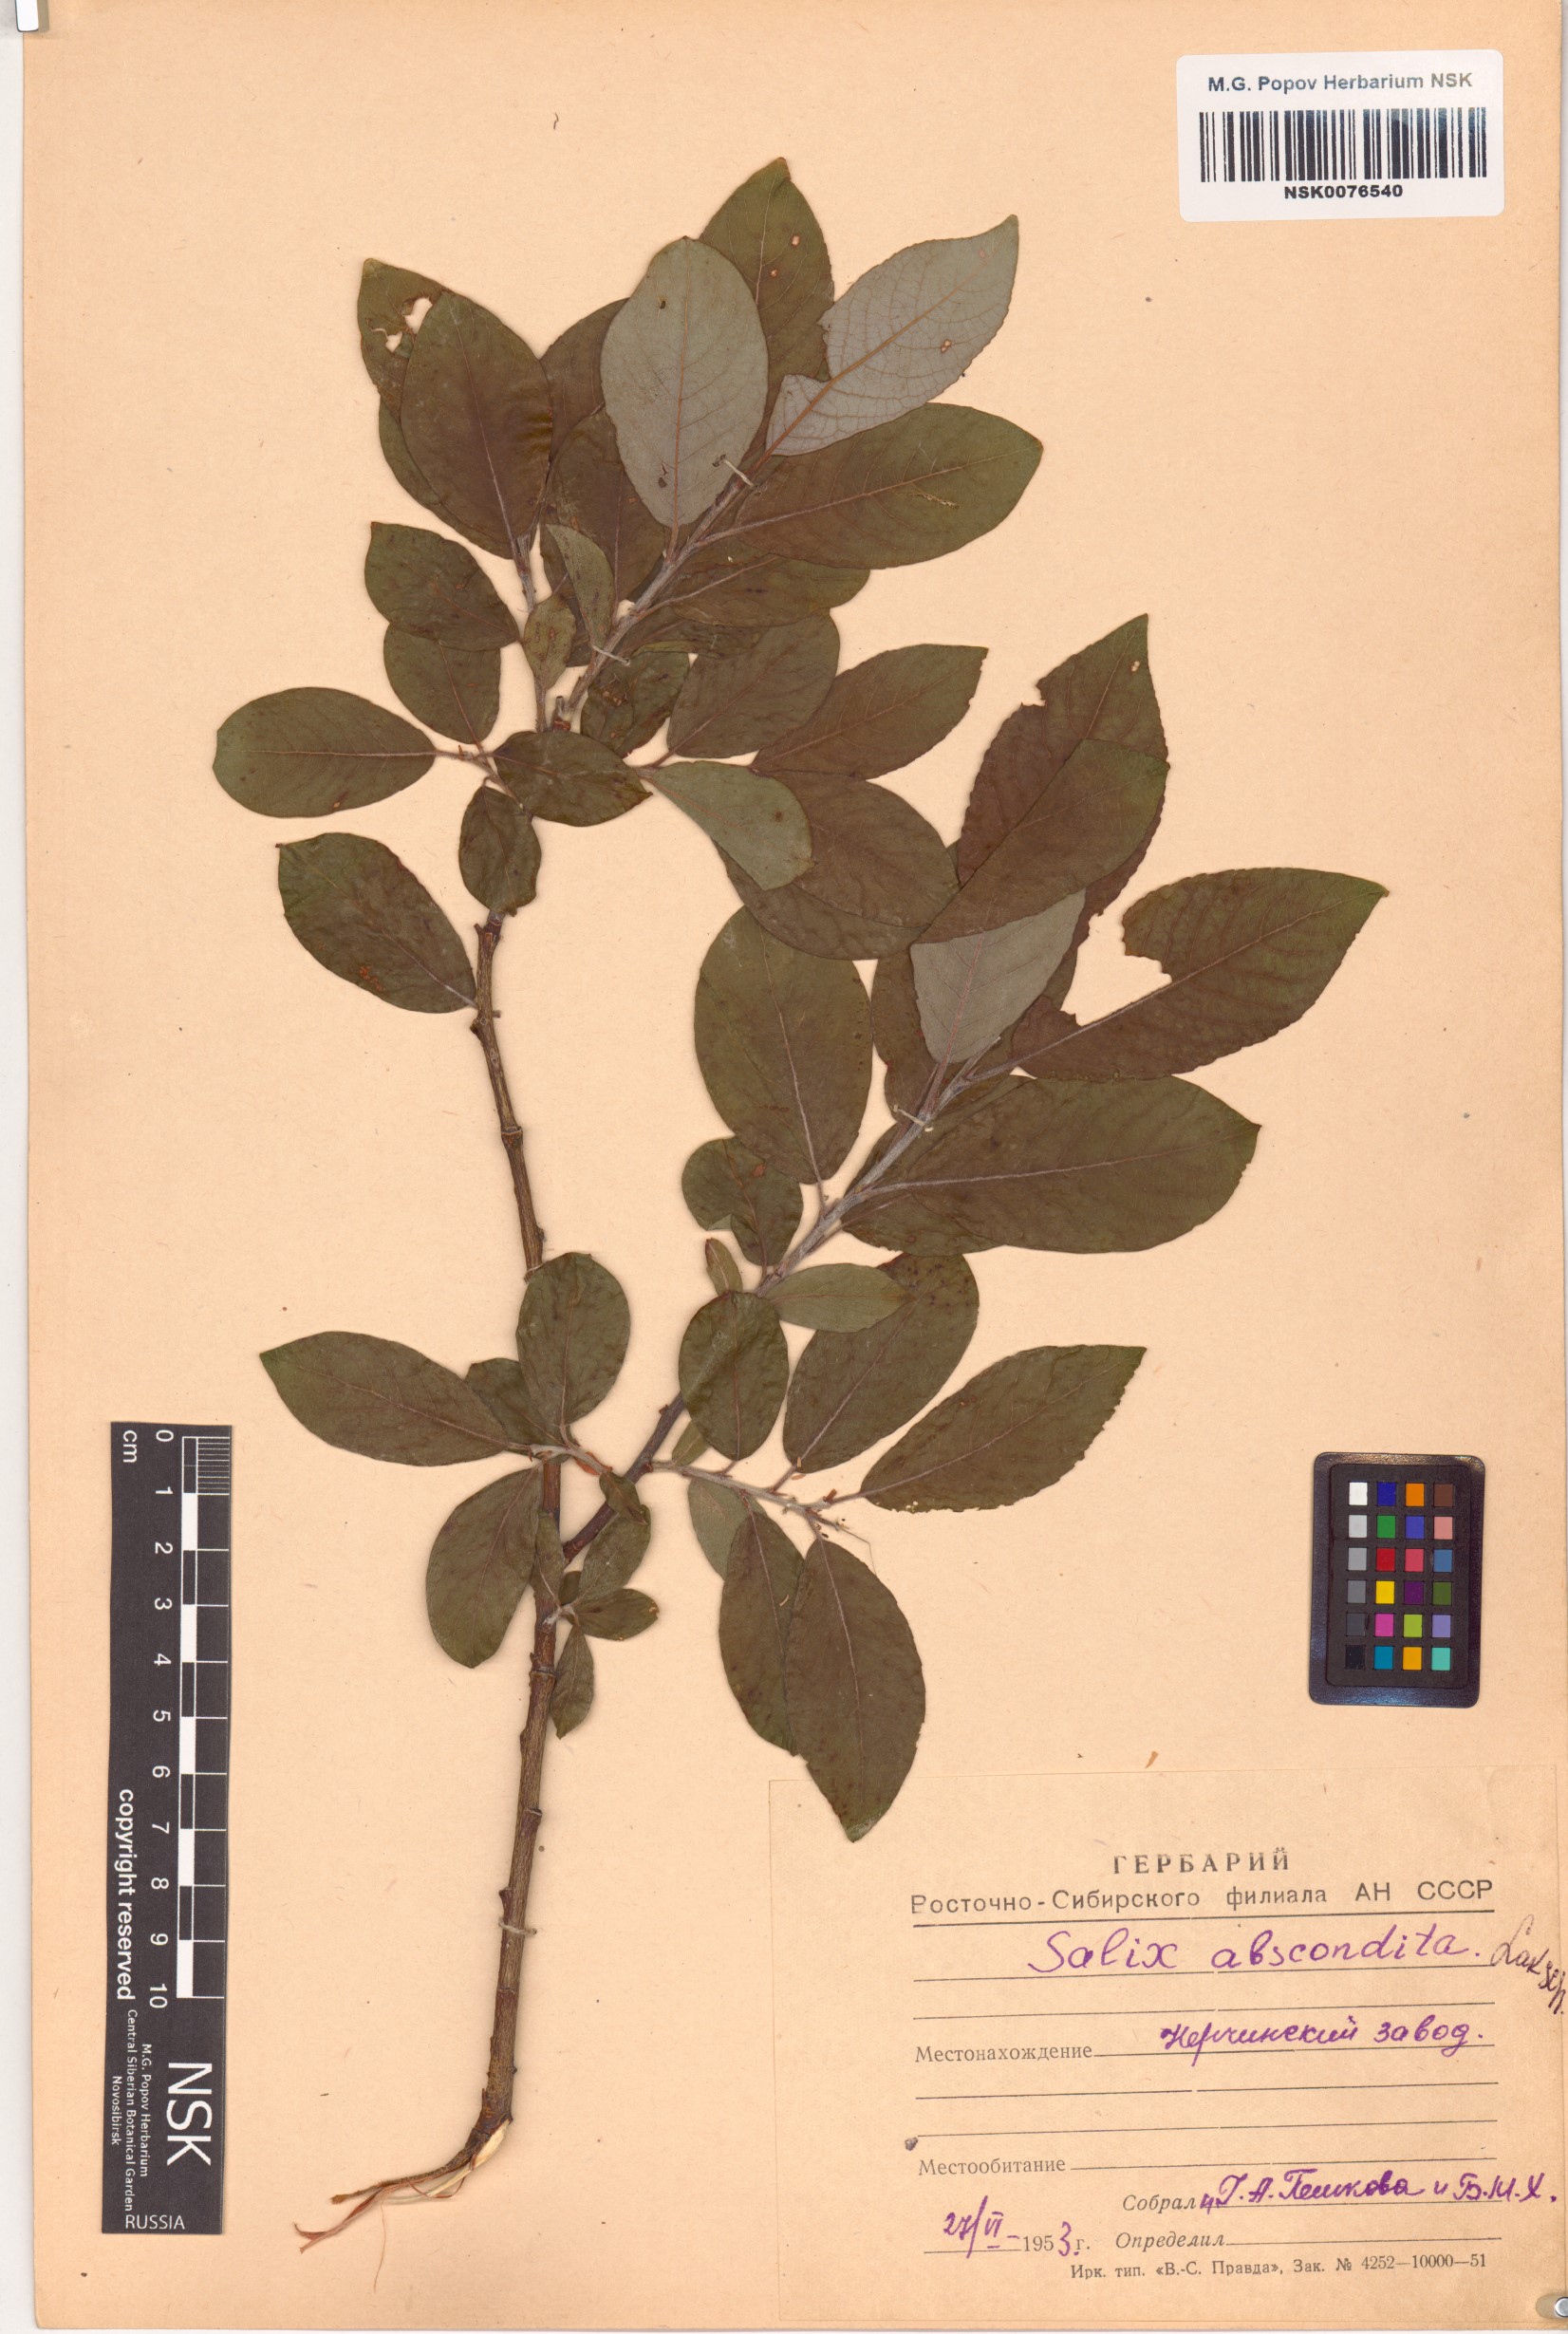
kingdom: Plantae
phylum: Tracheophyta
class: Magnoliopsida
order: Malpighiales
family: Salicaceae
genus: Salix
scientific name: Salix abscondita
